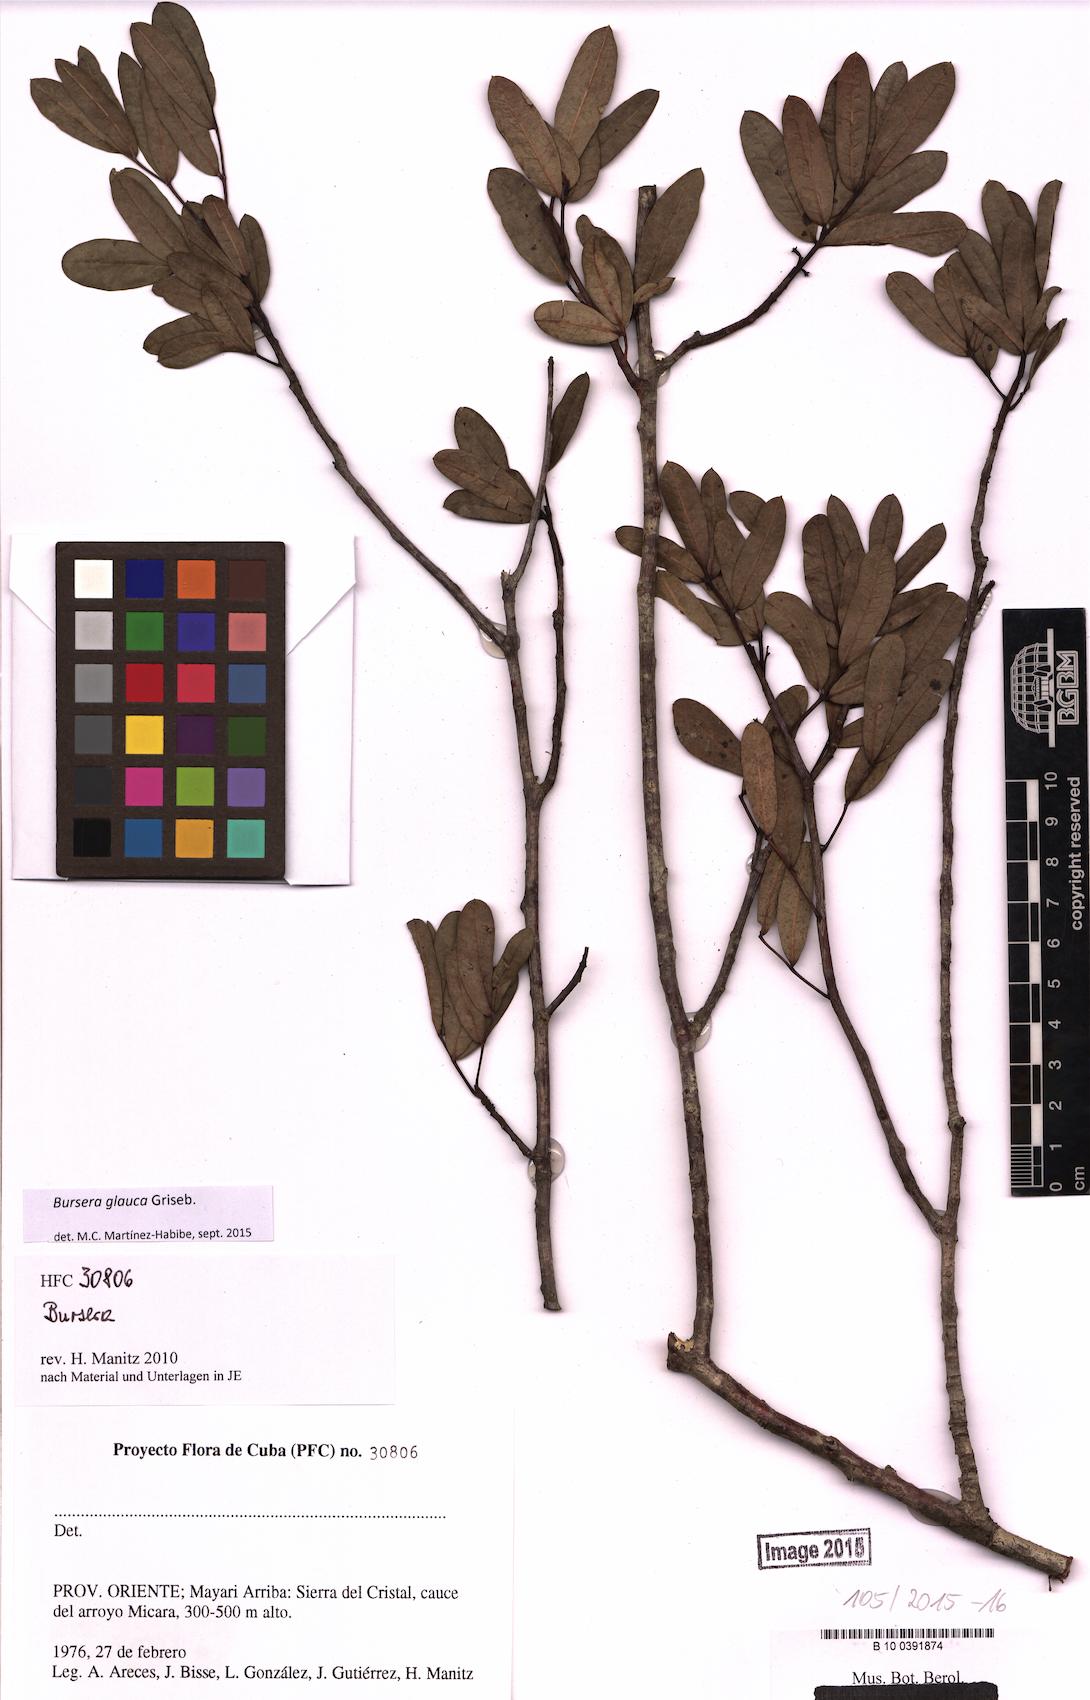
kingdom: Plantae
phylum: Tracheophyta
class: Magnoliopsida
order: Sapindales
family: Burseraceae
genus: Bursera
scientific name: Bursera glauca
